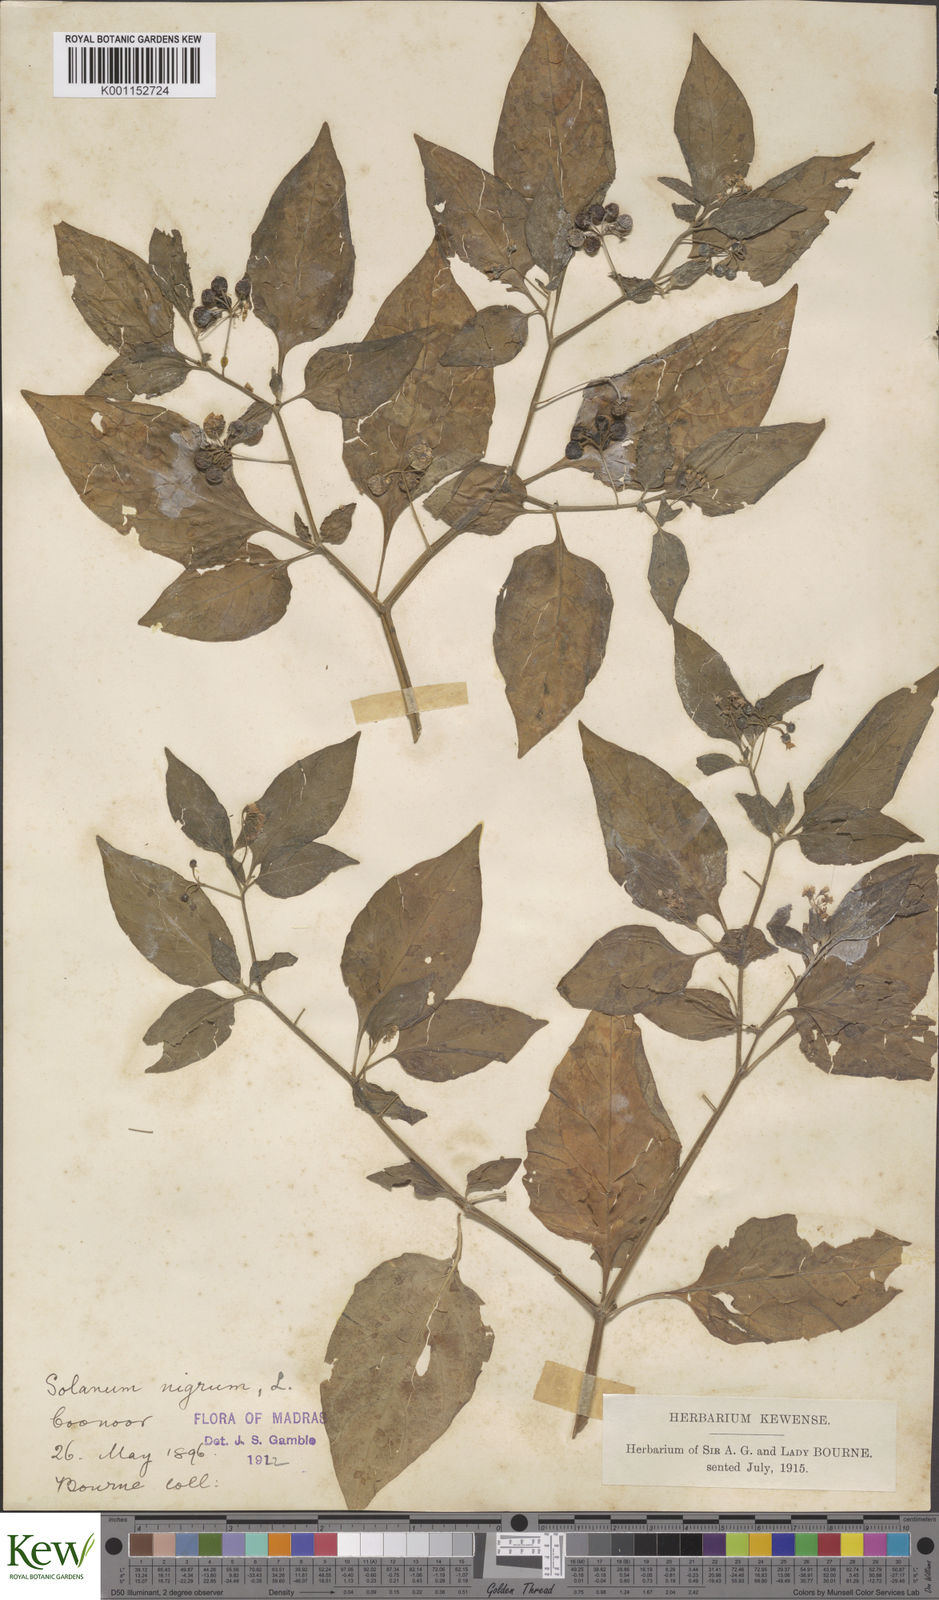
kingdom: Plantae
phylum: Tracheophyta
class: Magnoliopsida
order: Solanales
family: Solanaceae
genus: Solanum
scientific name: Solanum nigrum
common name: Black nightshade
